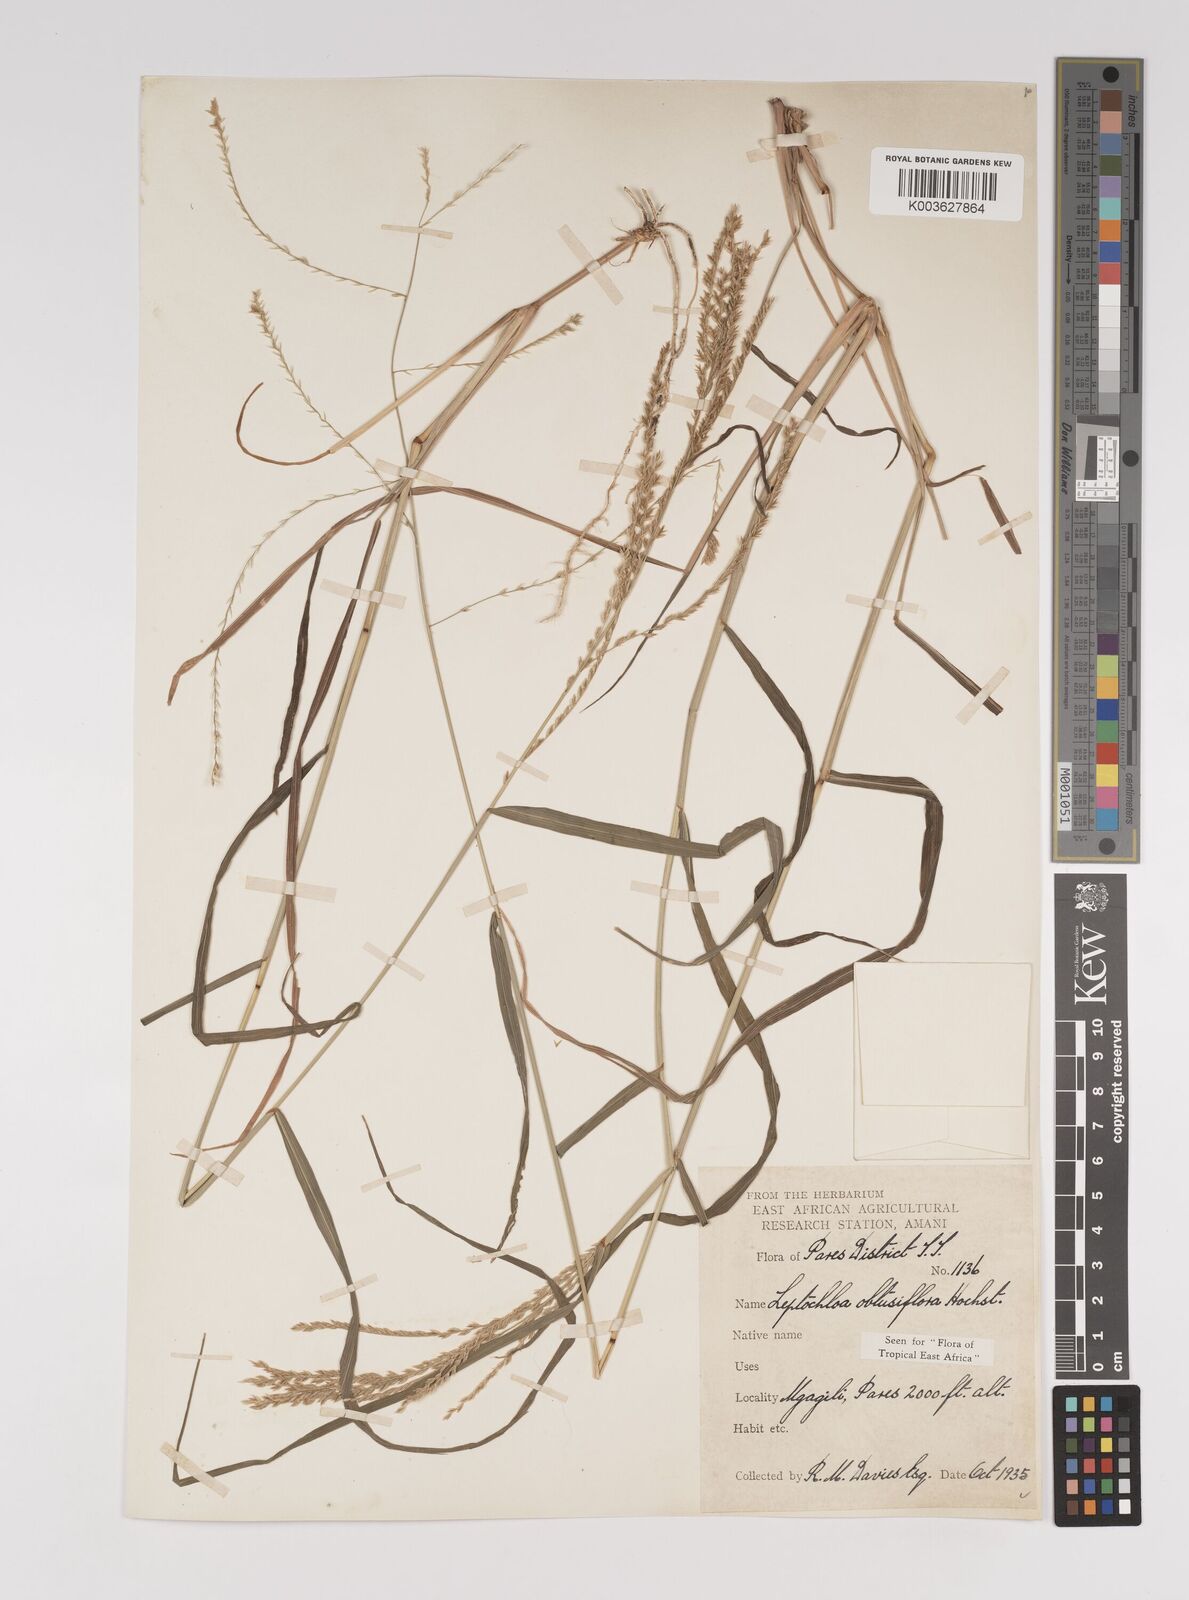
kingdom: Plantae
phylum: Tracheophyta
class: Liliopsida
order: Poales
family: Poaceae
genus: Disakisperma
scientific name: Disakisperma obtusiflorum
